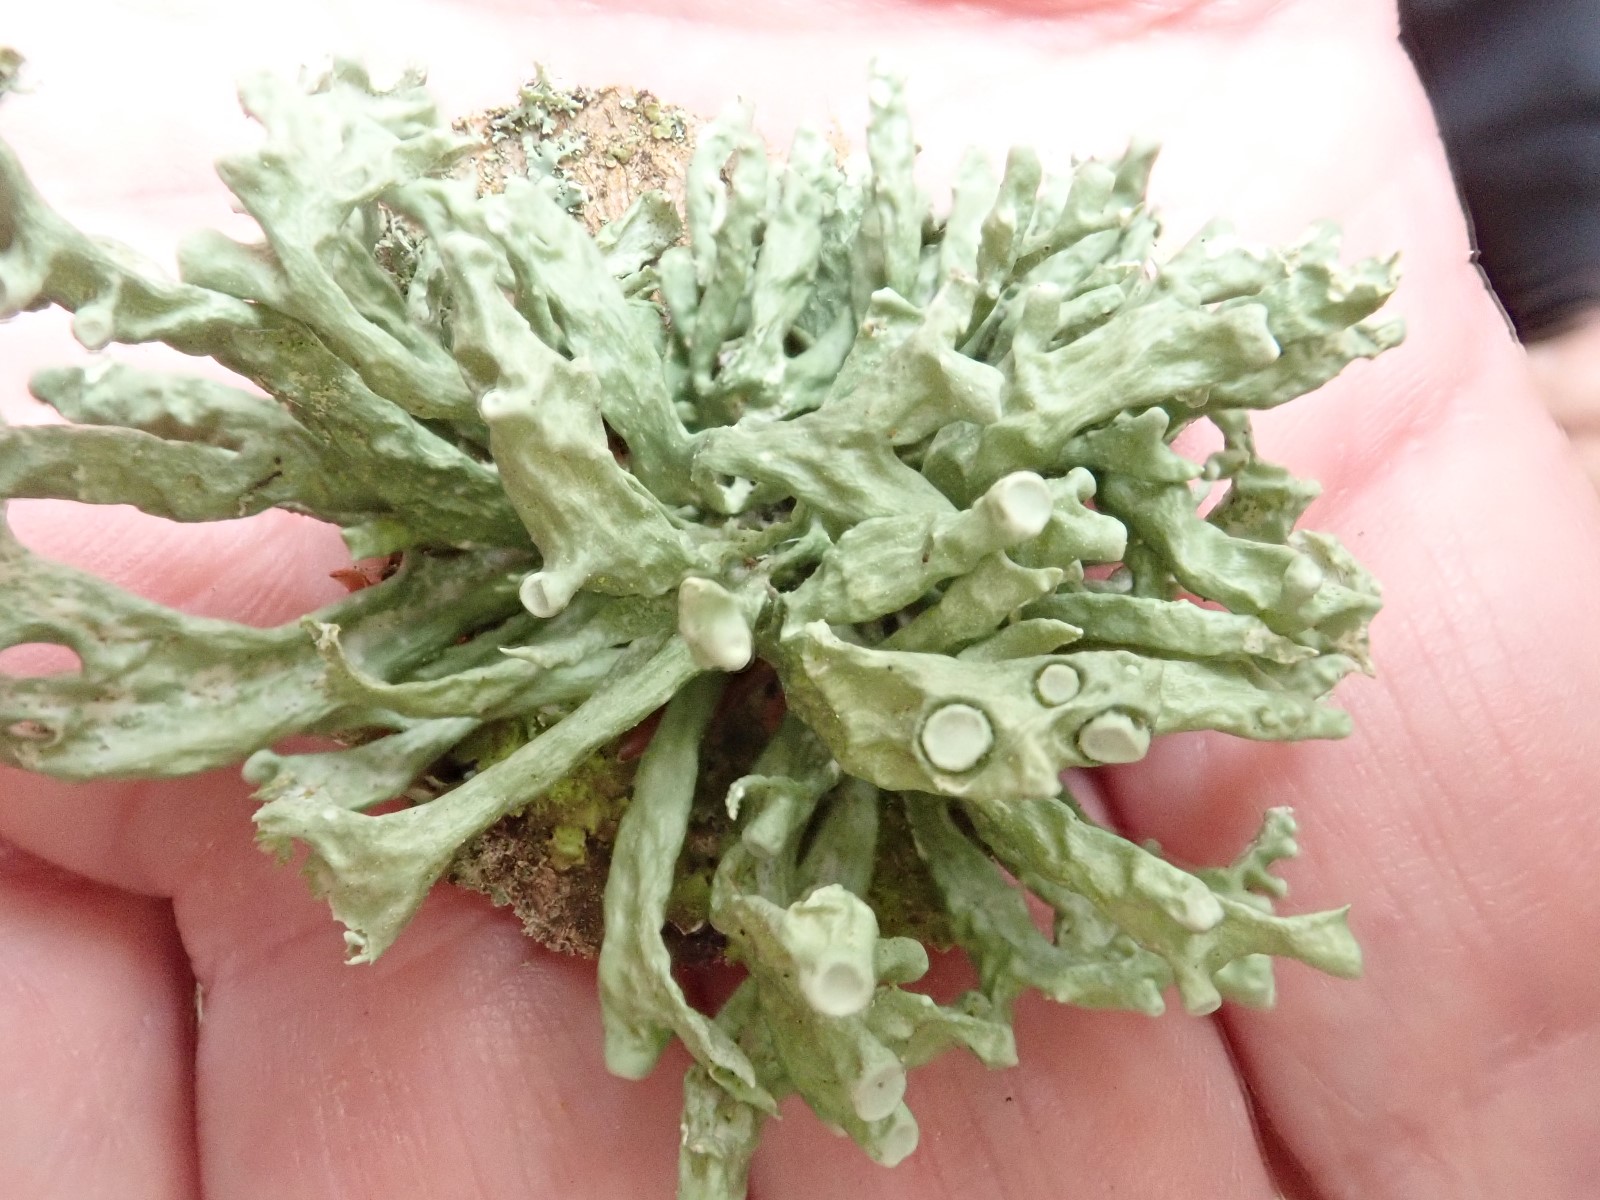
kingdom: Fungi
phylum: Ascomycota
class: Lecanoromycetes
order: Lecanorales
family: Ramalinaceae
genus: Ramalina
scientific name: Ramalina fastigiata
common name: tue-grenlav
